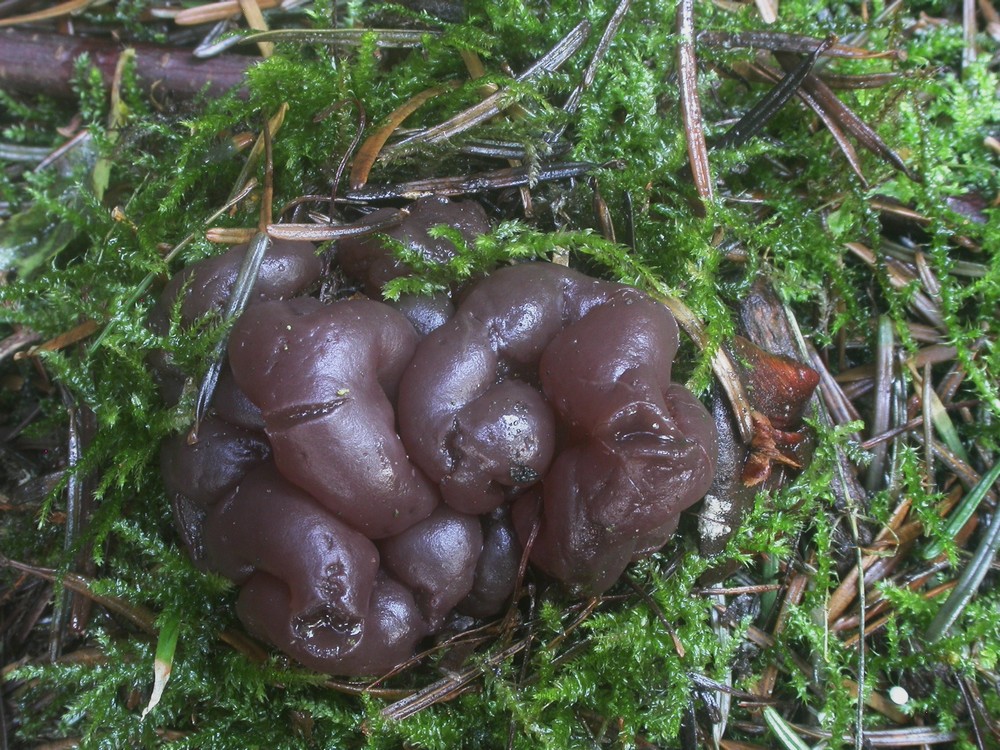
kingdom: Fungi
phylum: Ascomycota
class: Leotiomycetes
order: Helotiales
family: Gelatinodiscaceae
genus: Ascotremella
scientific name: Ascotremella faginea
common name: hjerne-bævreskive
